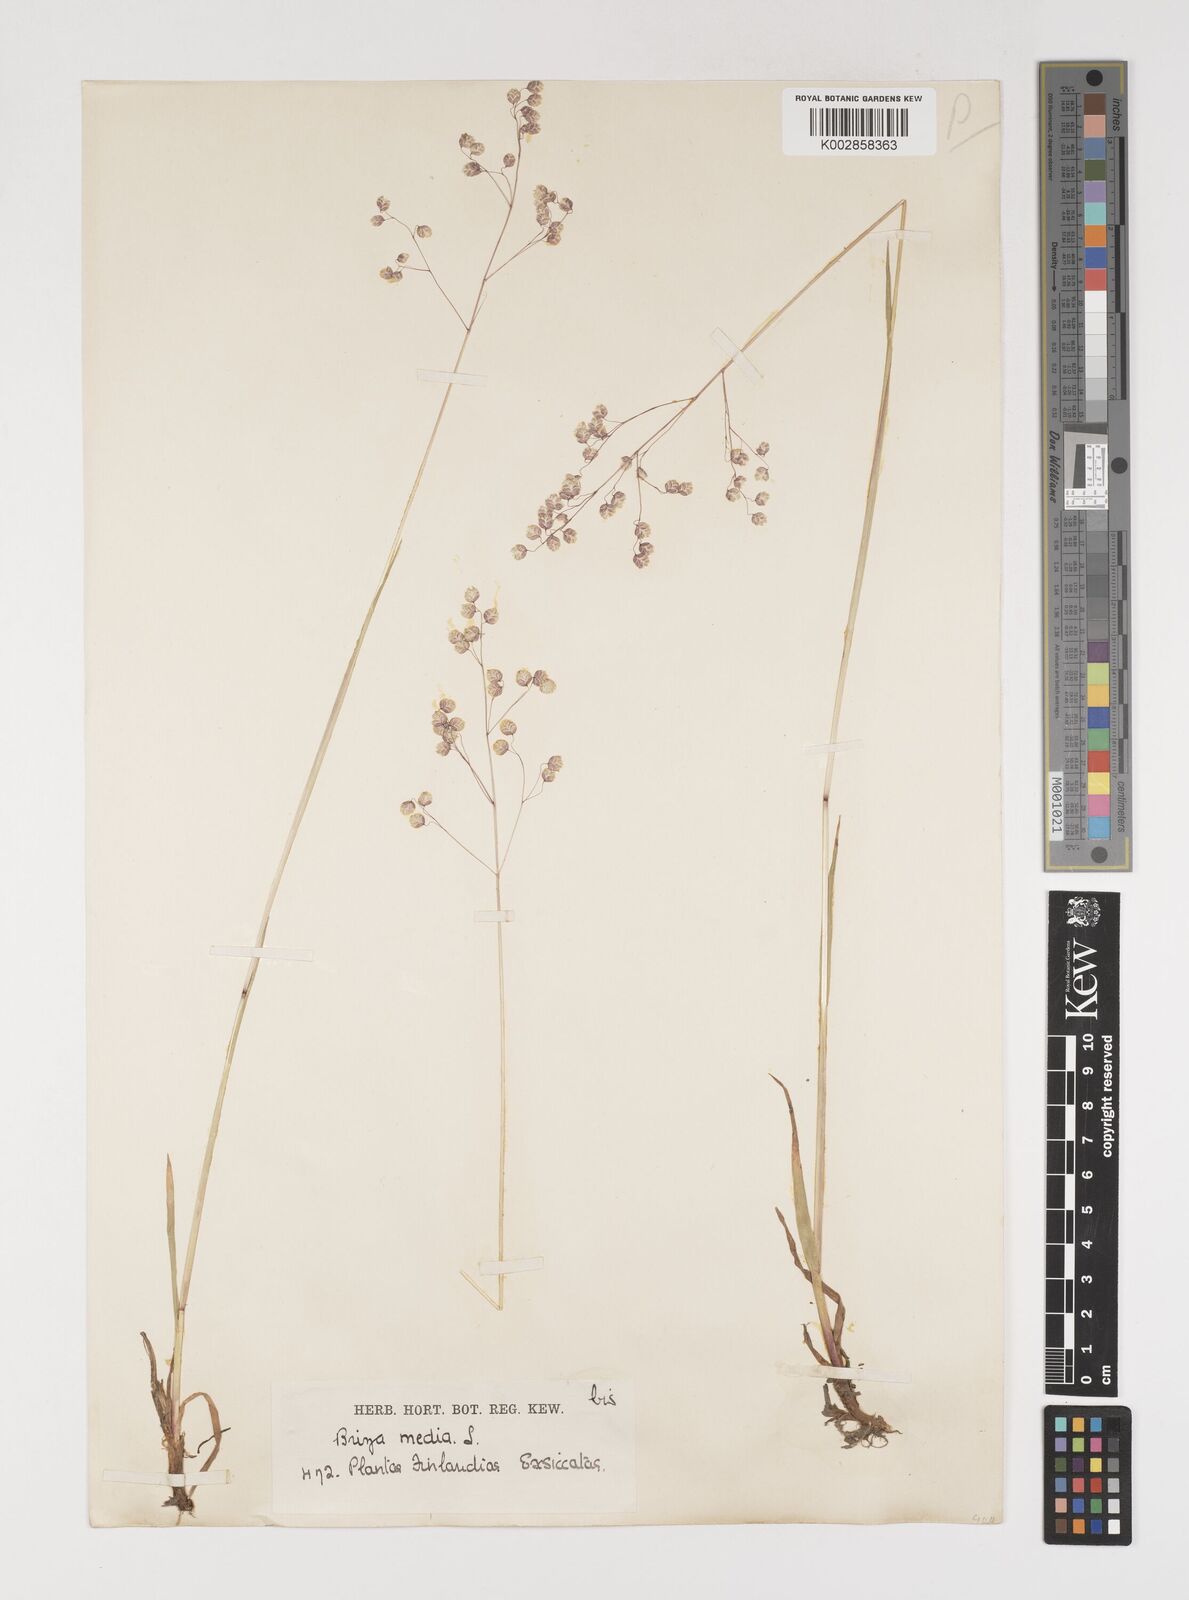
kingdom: Plantae
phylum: Tracheophyta
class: Liliopsida
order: Poales
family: Poaceae
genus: Briza
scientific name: Briza media
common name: Quaking grass
